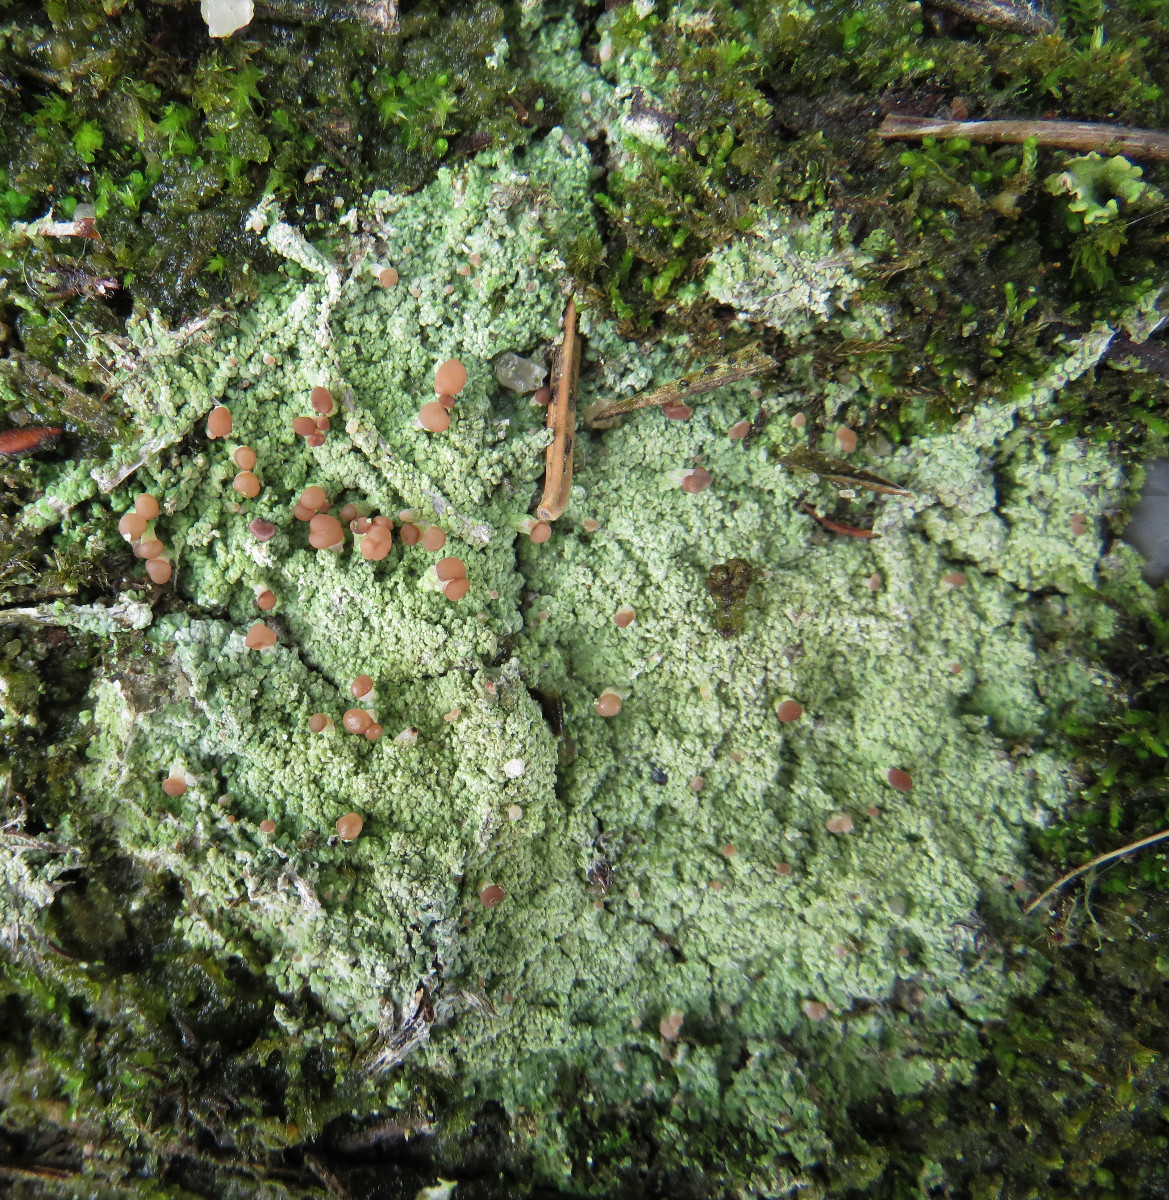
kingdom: Fungi
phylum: Ascomycota
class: Lecanoromycetes
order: Baeomycetales
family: Baeomycetaceae
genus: Baeomyces
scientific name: Baeomyces rufus
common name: rødbrun svampelav
